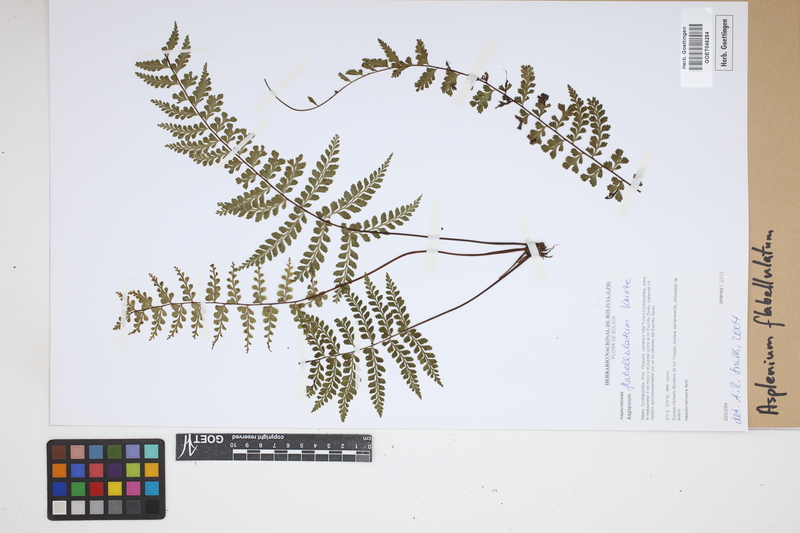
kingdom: Plantae
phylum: Tracheophyta
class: Polypodiopsida
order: Polypodiales
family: Aspleniaceae
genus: Asplenium
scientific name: Asplenium flabellulatum
